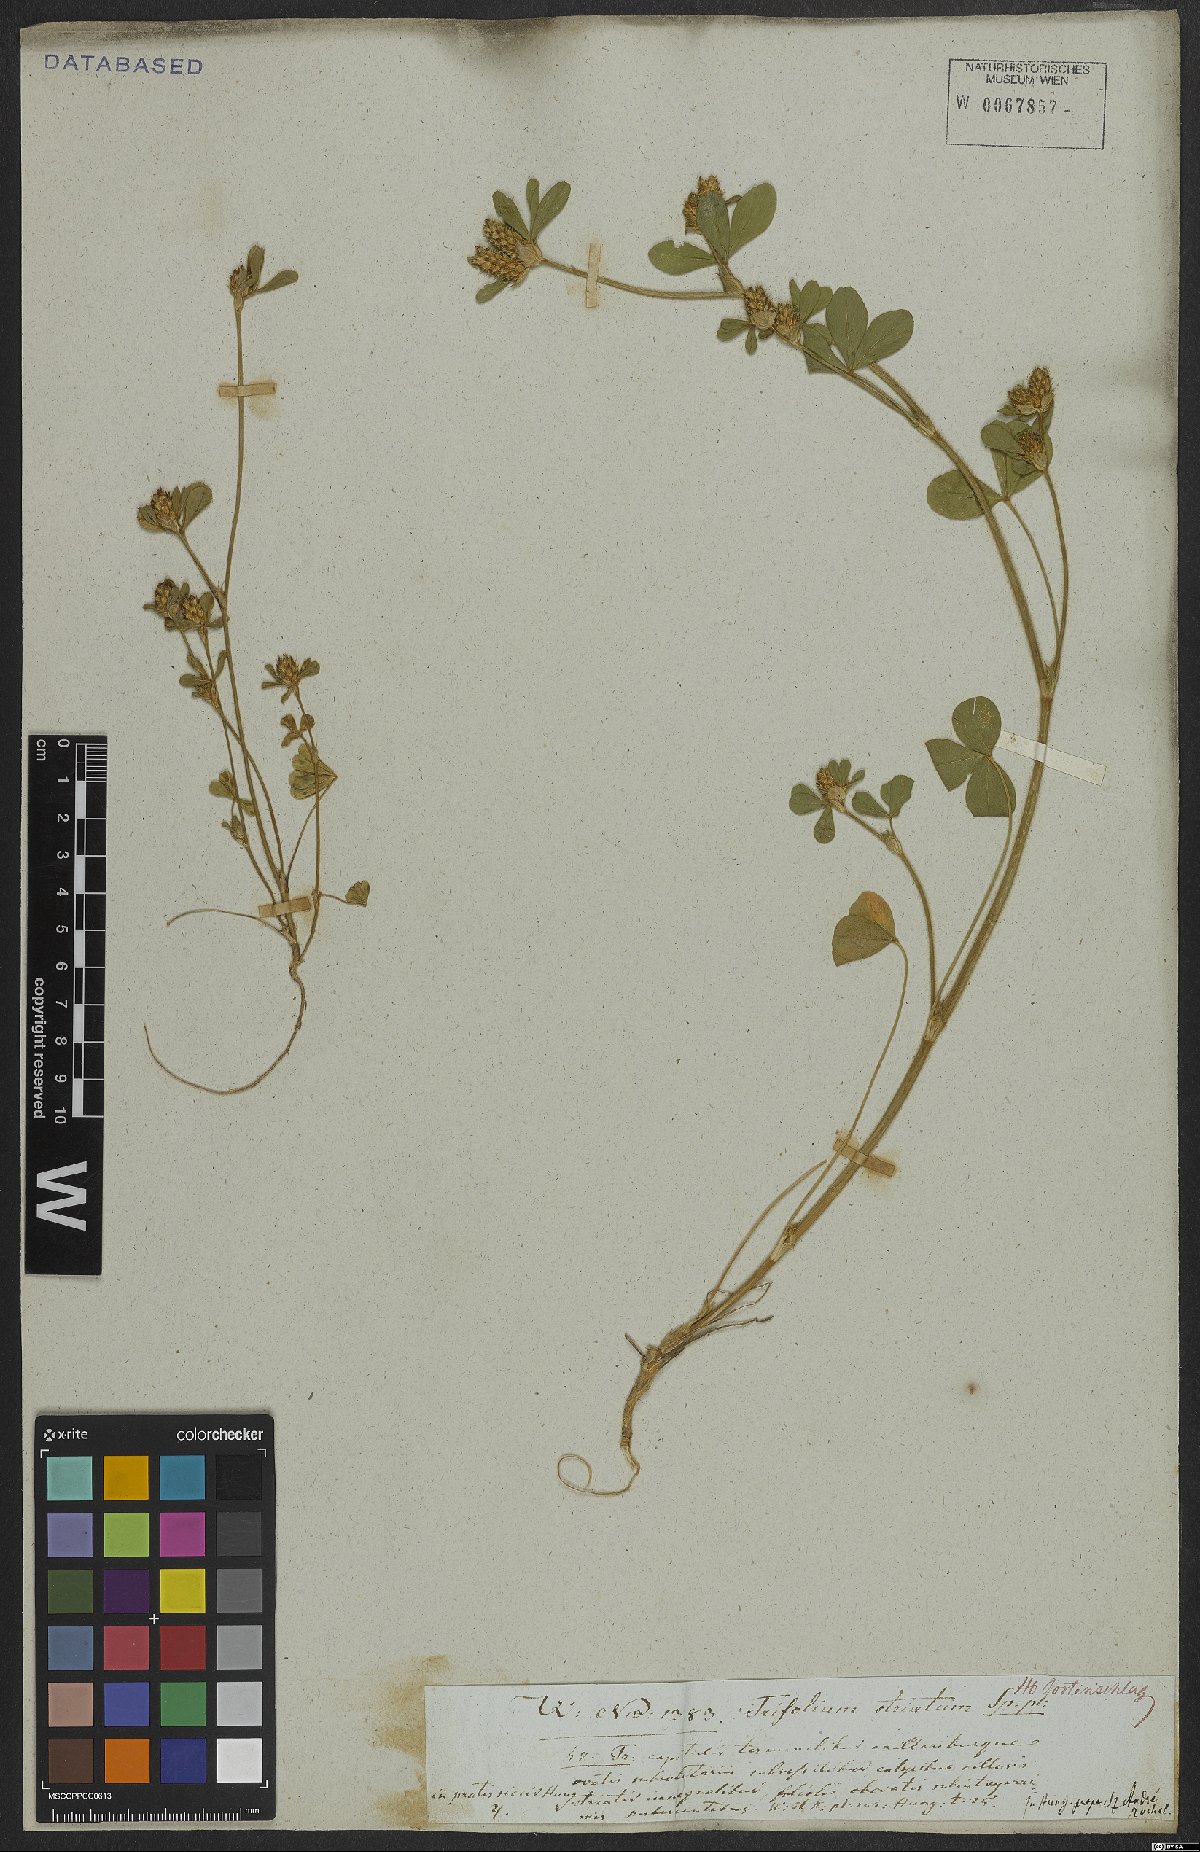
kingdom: Plantae
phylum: Tracheophyta
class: Magnoliopsida
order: Fabales
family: Fabaceae
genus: Trifolium
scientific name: Trifolium striatum
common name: Knotted clover
